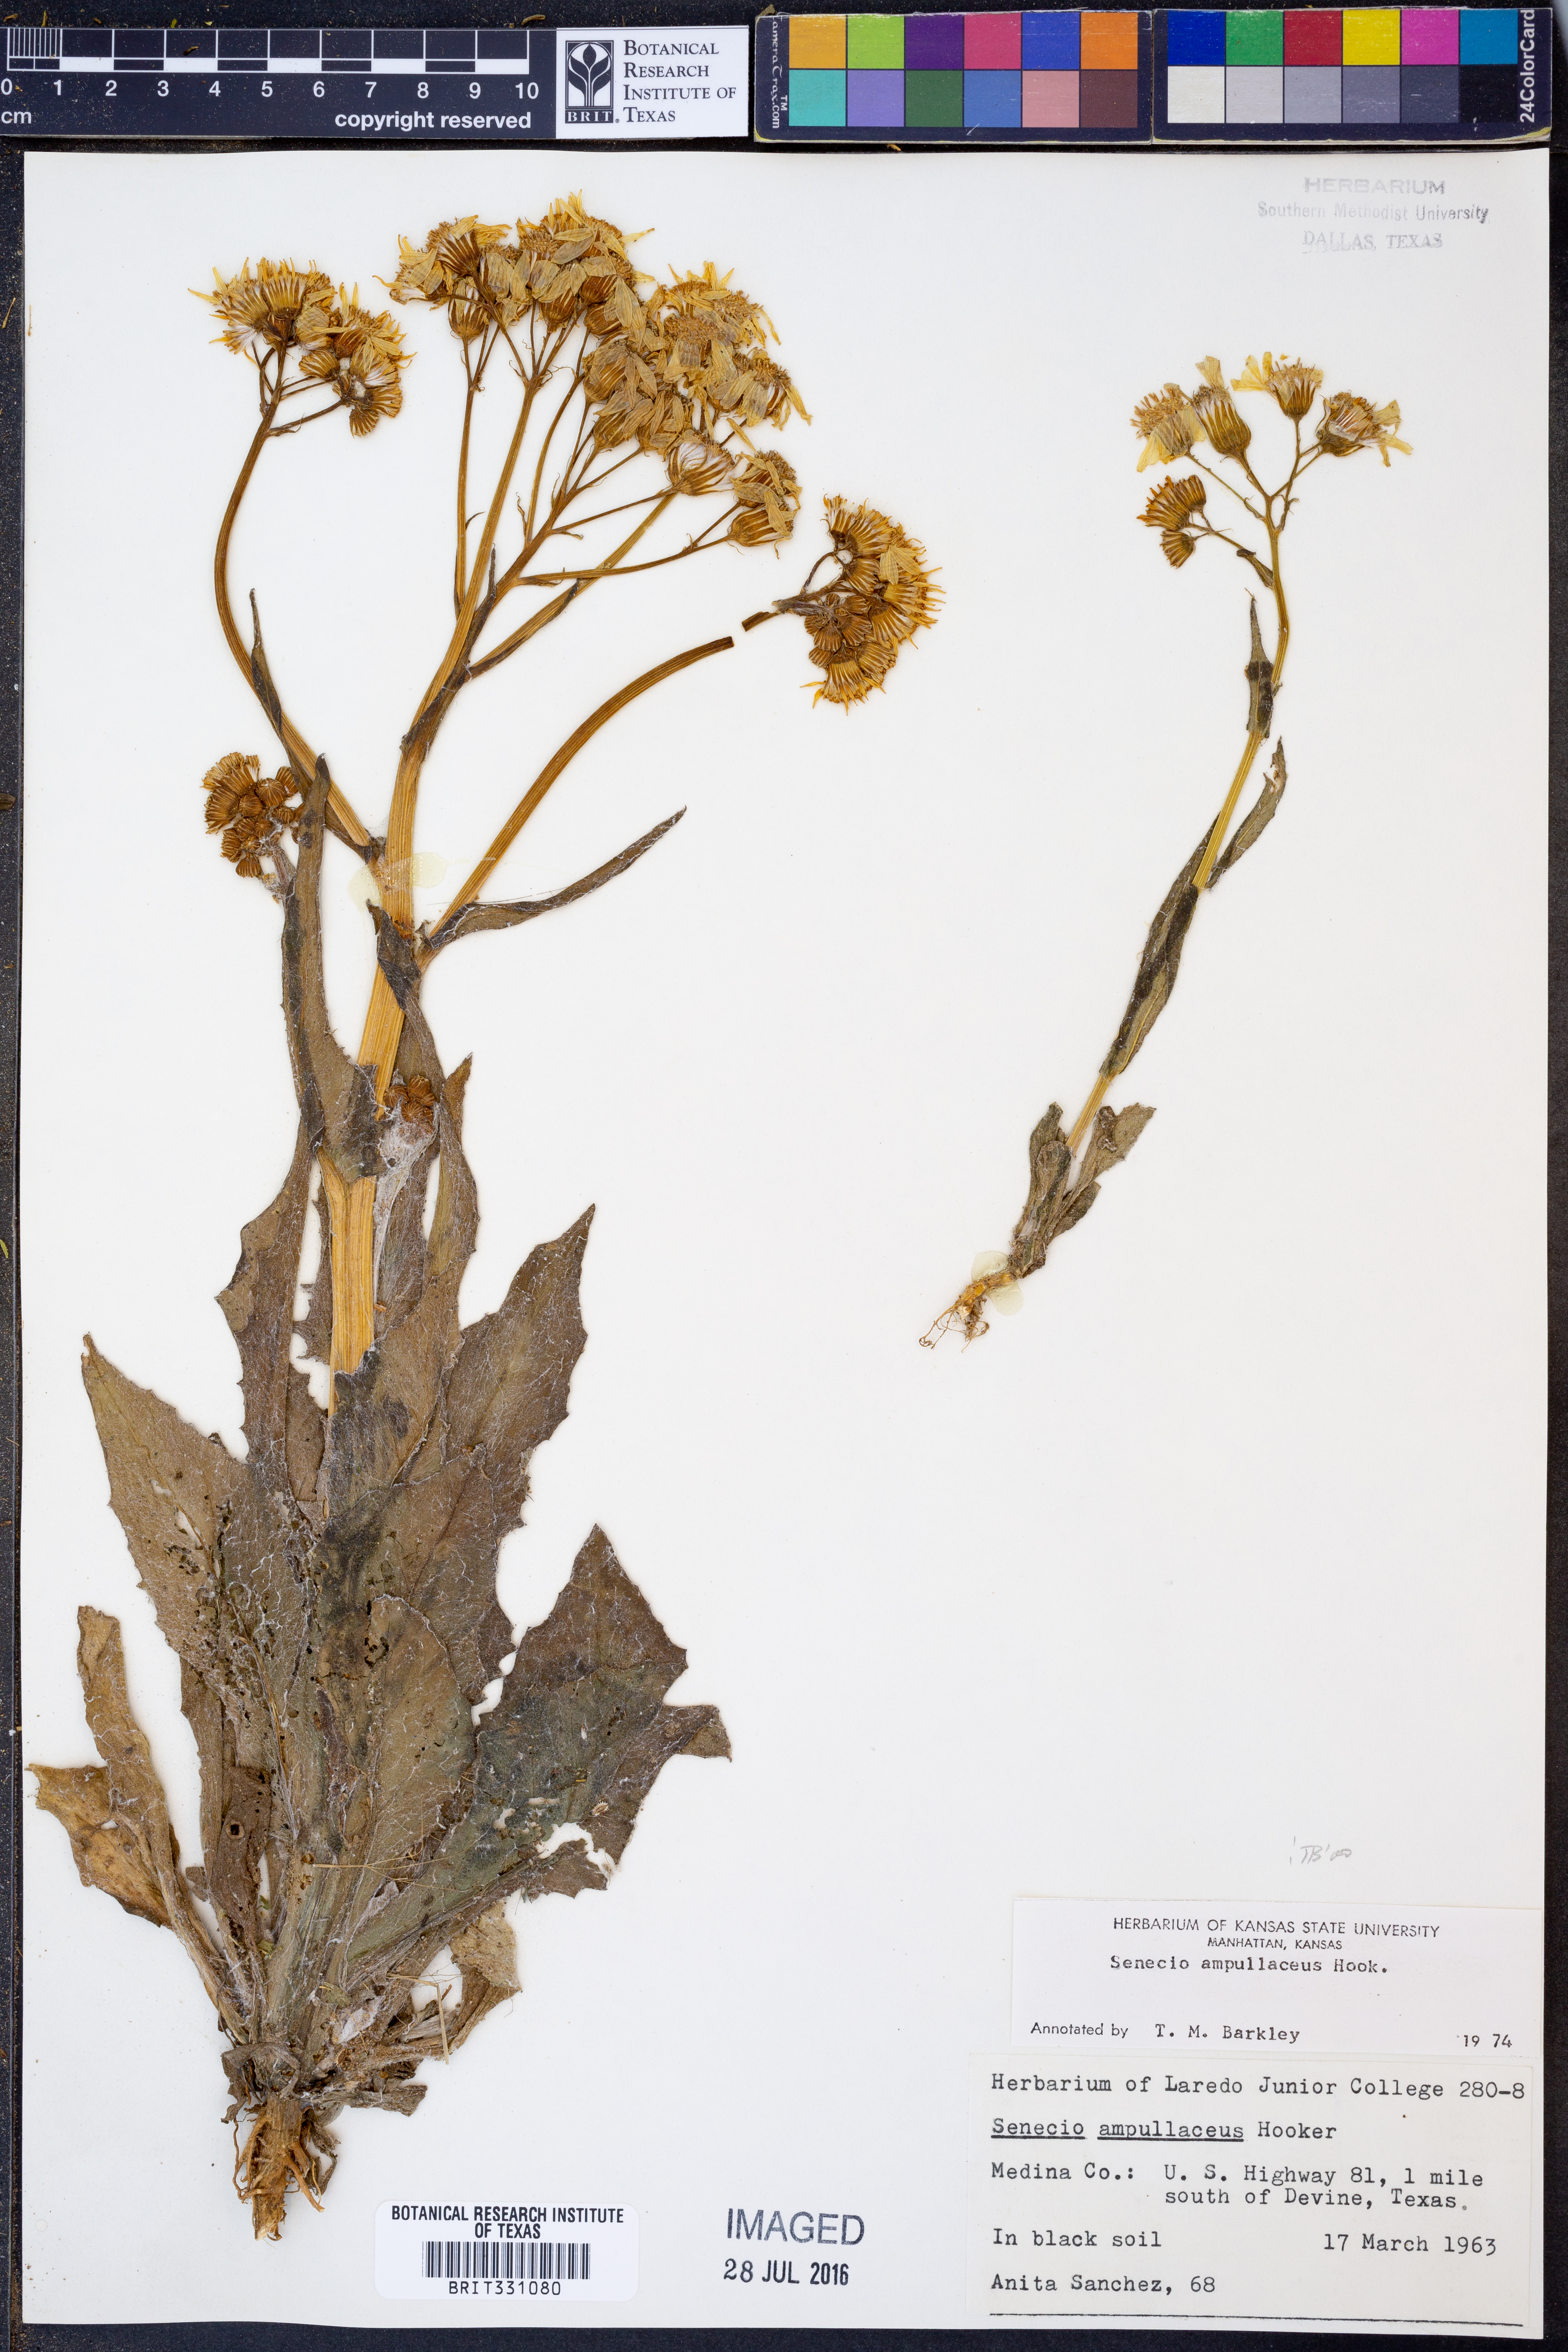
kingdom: Plantae
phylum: Tracheophyta
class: Magnoliopsida
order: Asterales
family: Asteraceae
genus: Senecio
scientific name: Senecio ampullaceus
